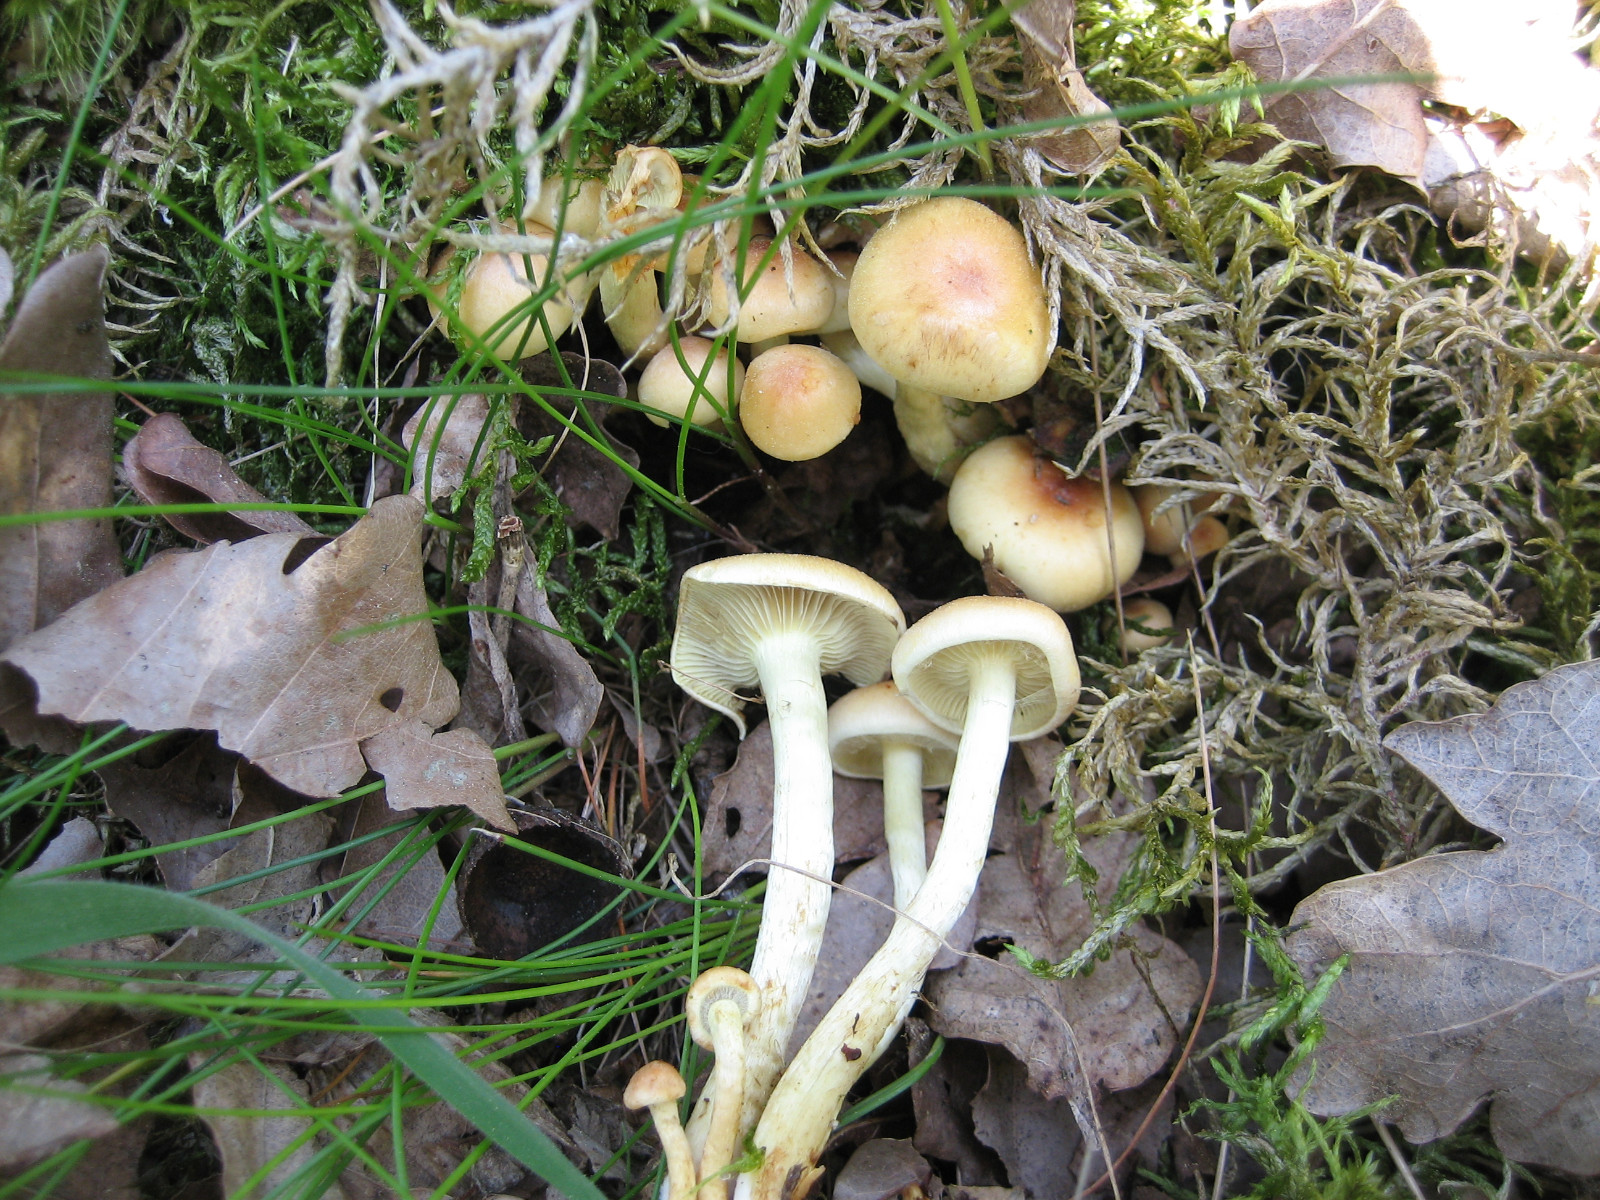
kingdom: Fungi
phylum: Basidiomycota
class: Agaricomycetes
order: Agaricales
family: Strophariaceae
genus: Hypholoma
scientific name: Hypholoma fasciculare
